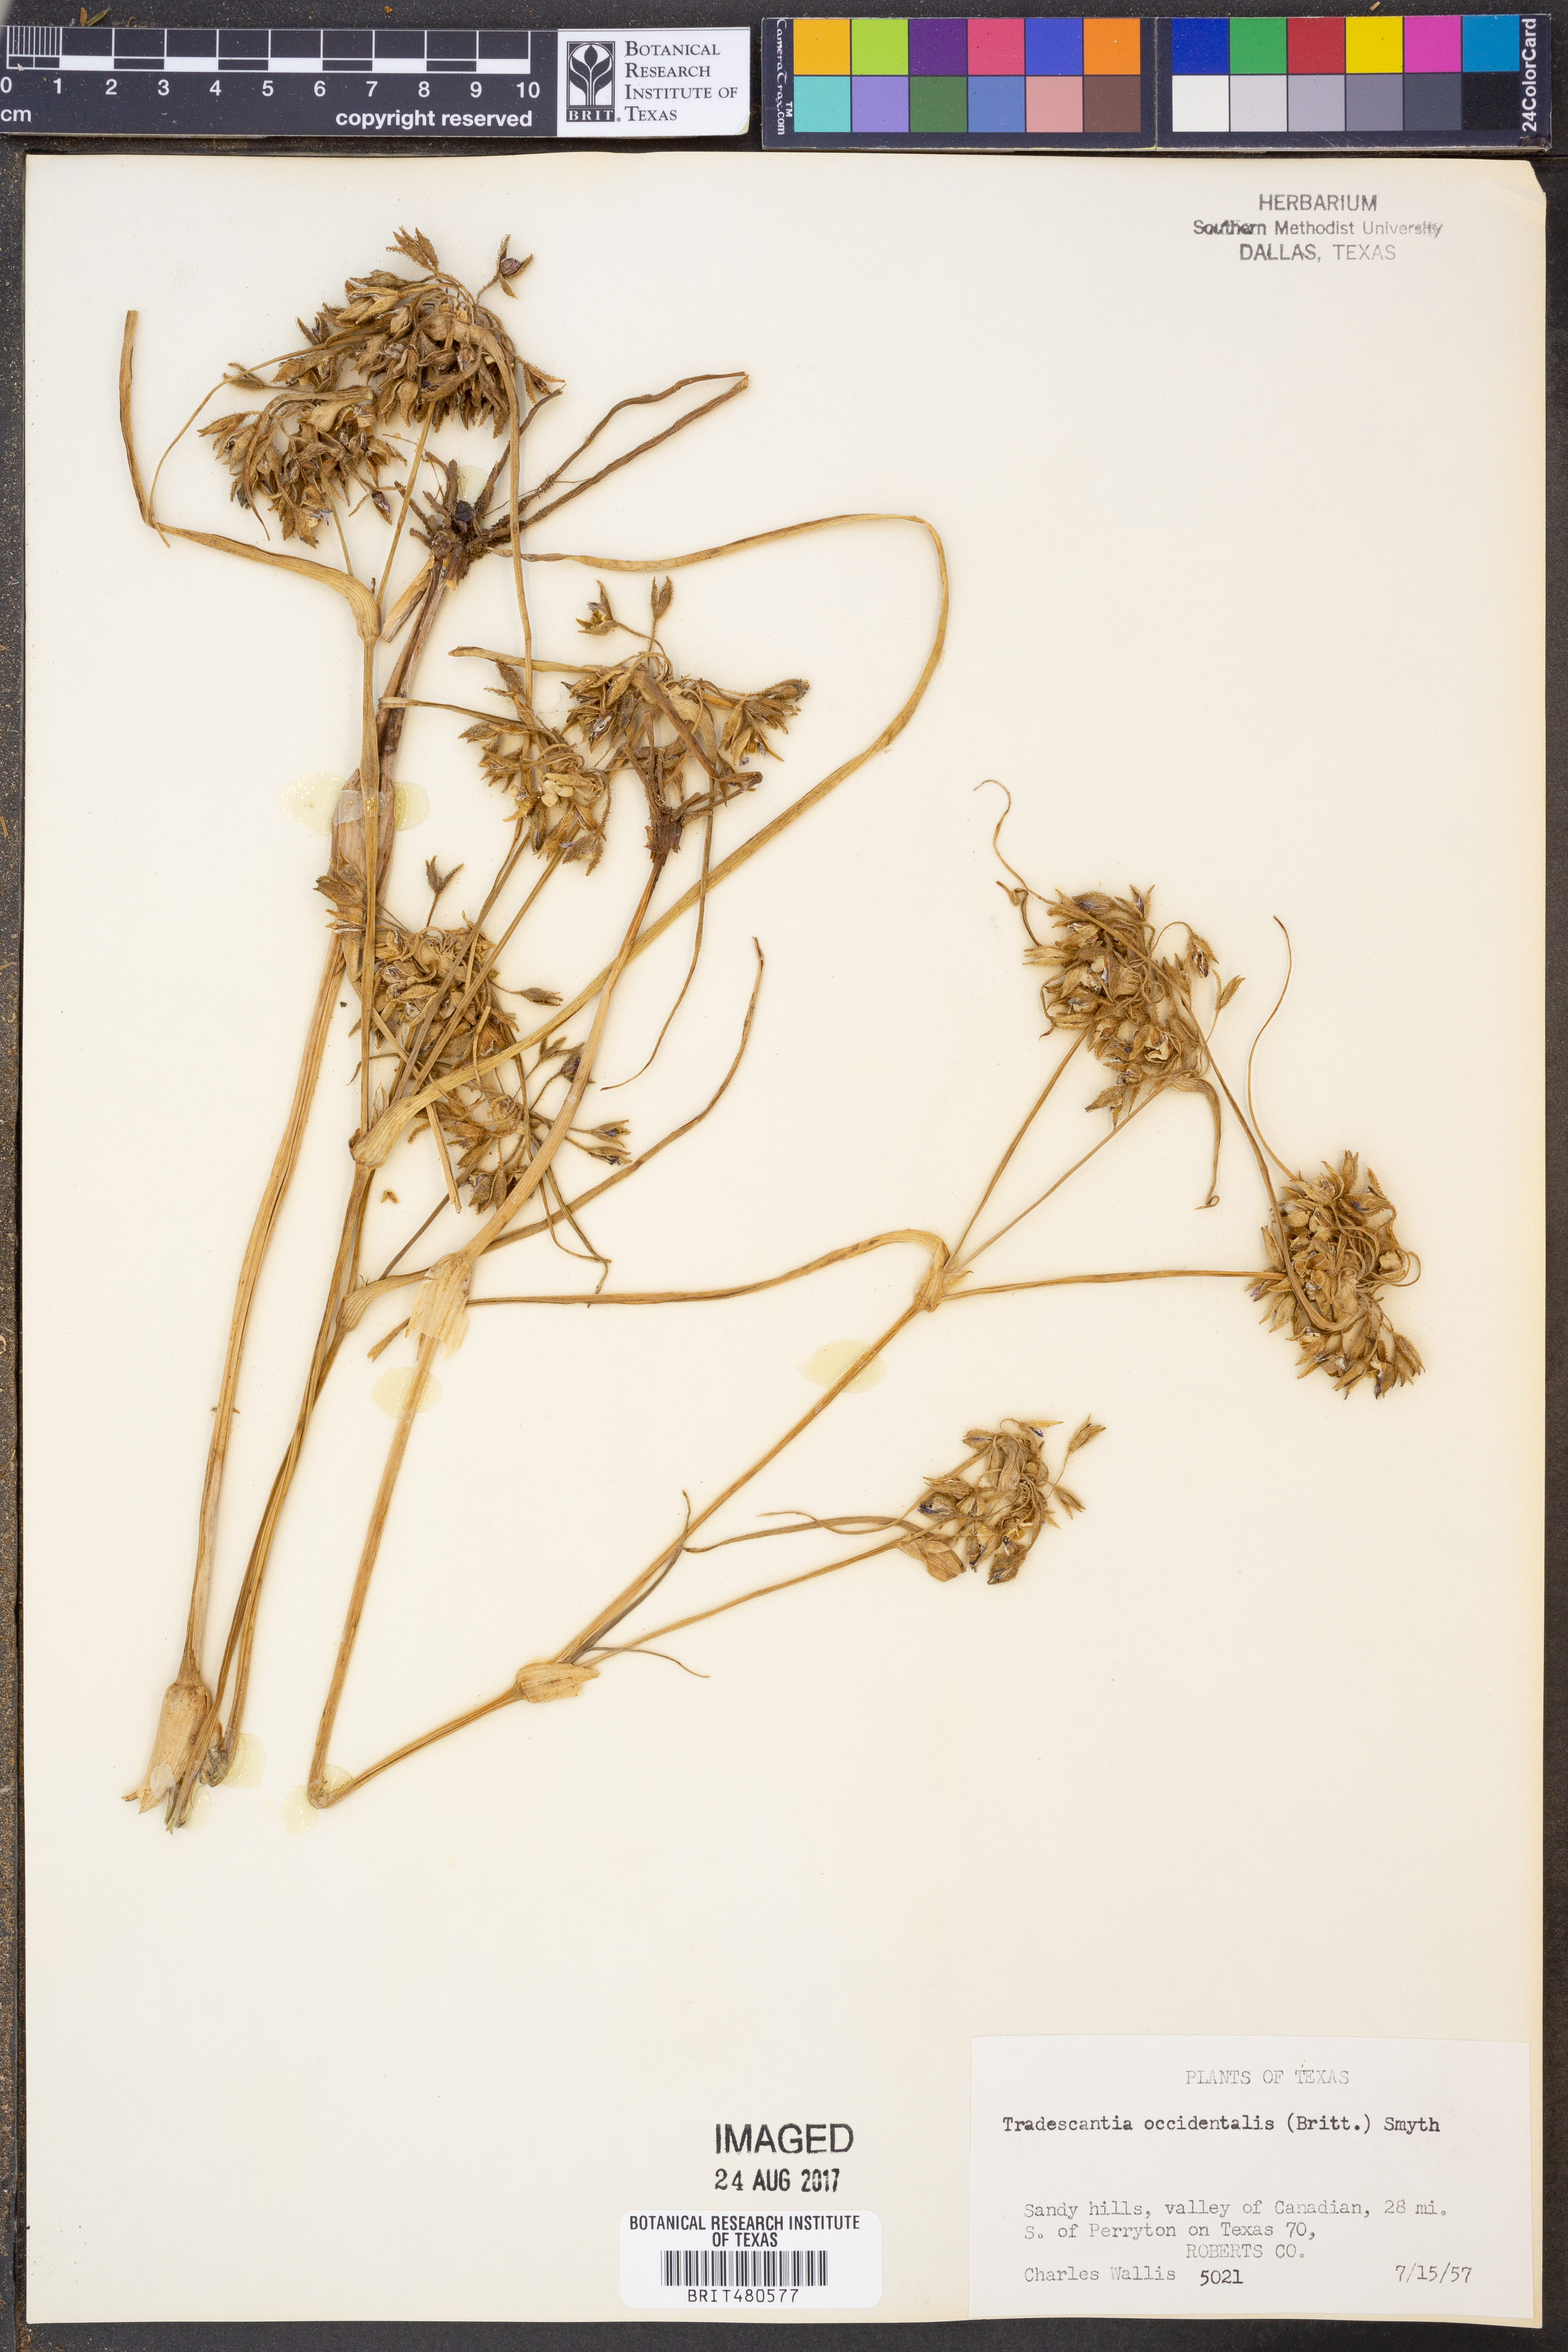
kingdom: Plantae
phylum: Tracheophyta
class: Liliopsida
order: Commelinales
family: Commelinaceae
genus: Tradescantia
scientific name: Tradescantia occidentalis
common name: Prairie spiderwort
